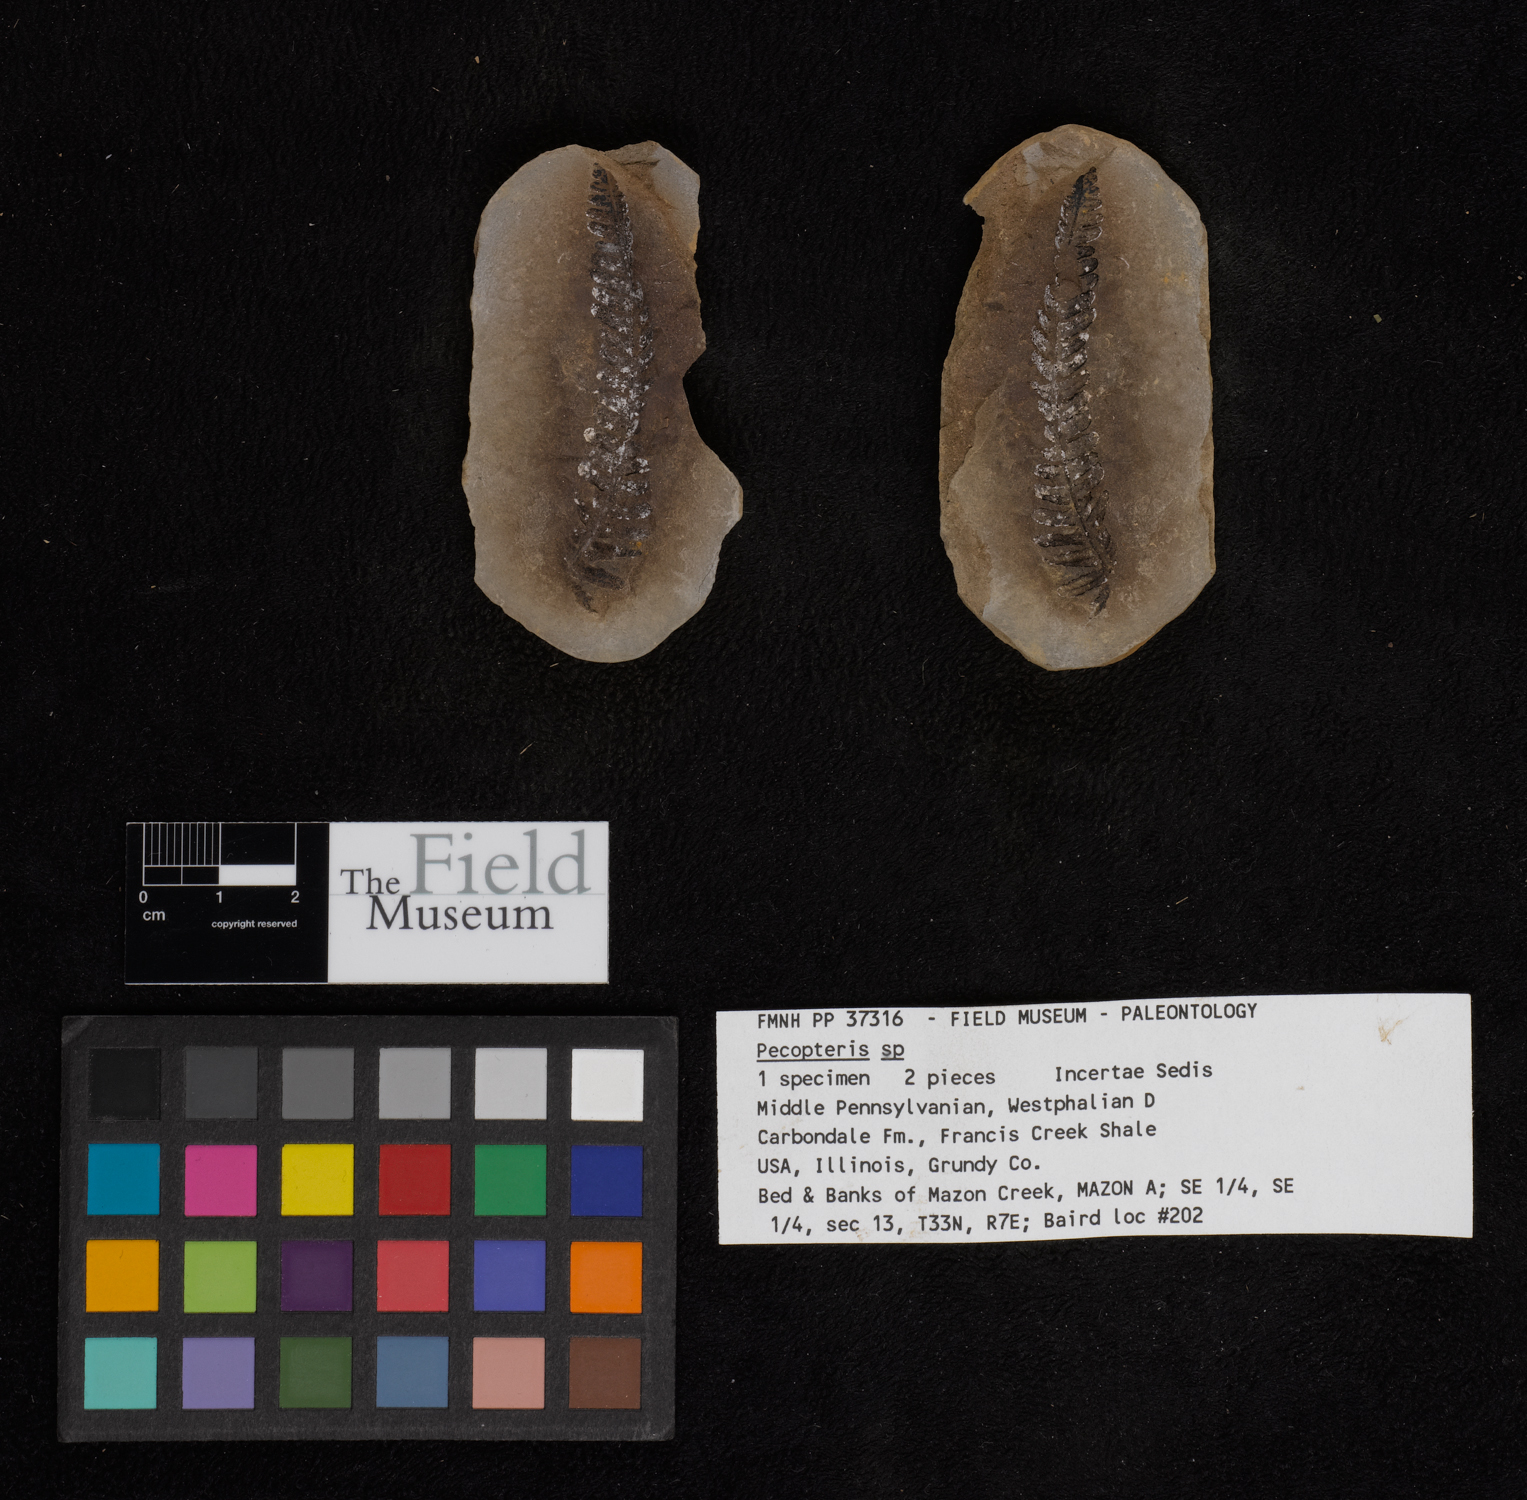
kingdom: Plantae
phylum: Tracheophyta
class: Polypodiopsida
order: Marattiales
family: Asterothecaceae
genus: Pecopteris
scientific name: Pecopteris
